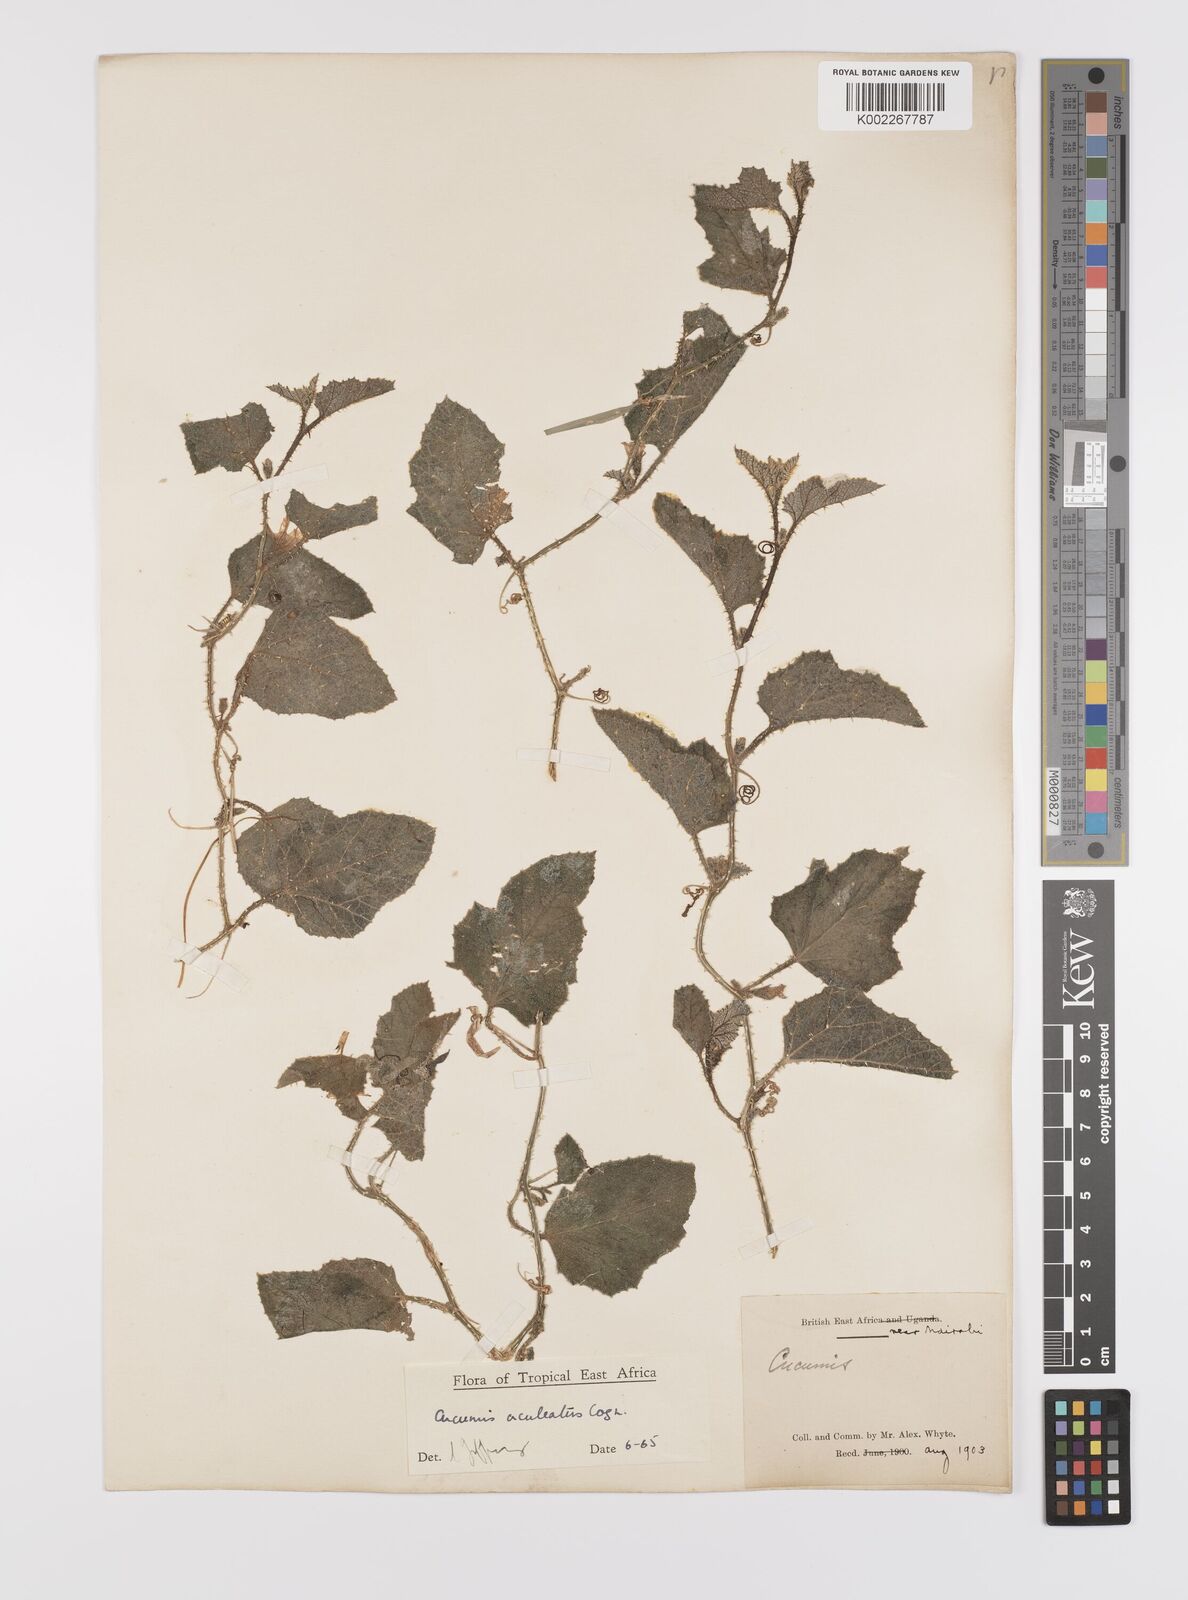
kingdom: Plantae
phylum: Tracheophyta
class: Magnoliopsida
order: Cucurbitales
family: Cucurbitaceae
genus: Cucumis
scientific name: Cucumis aculeatus
